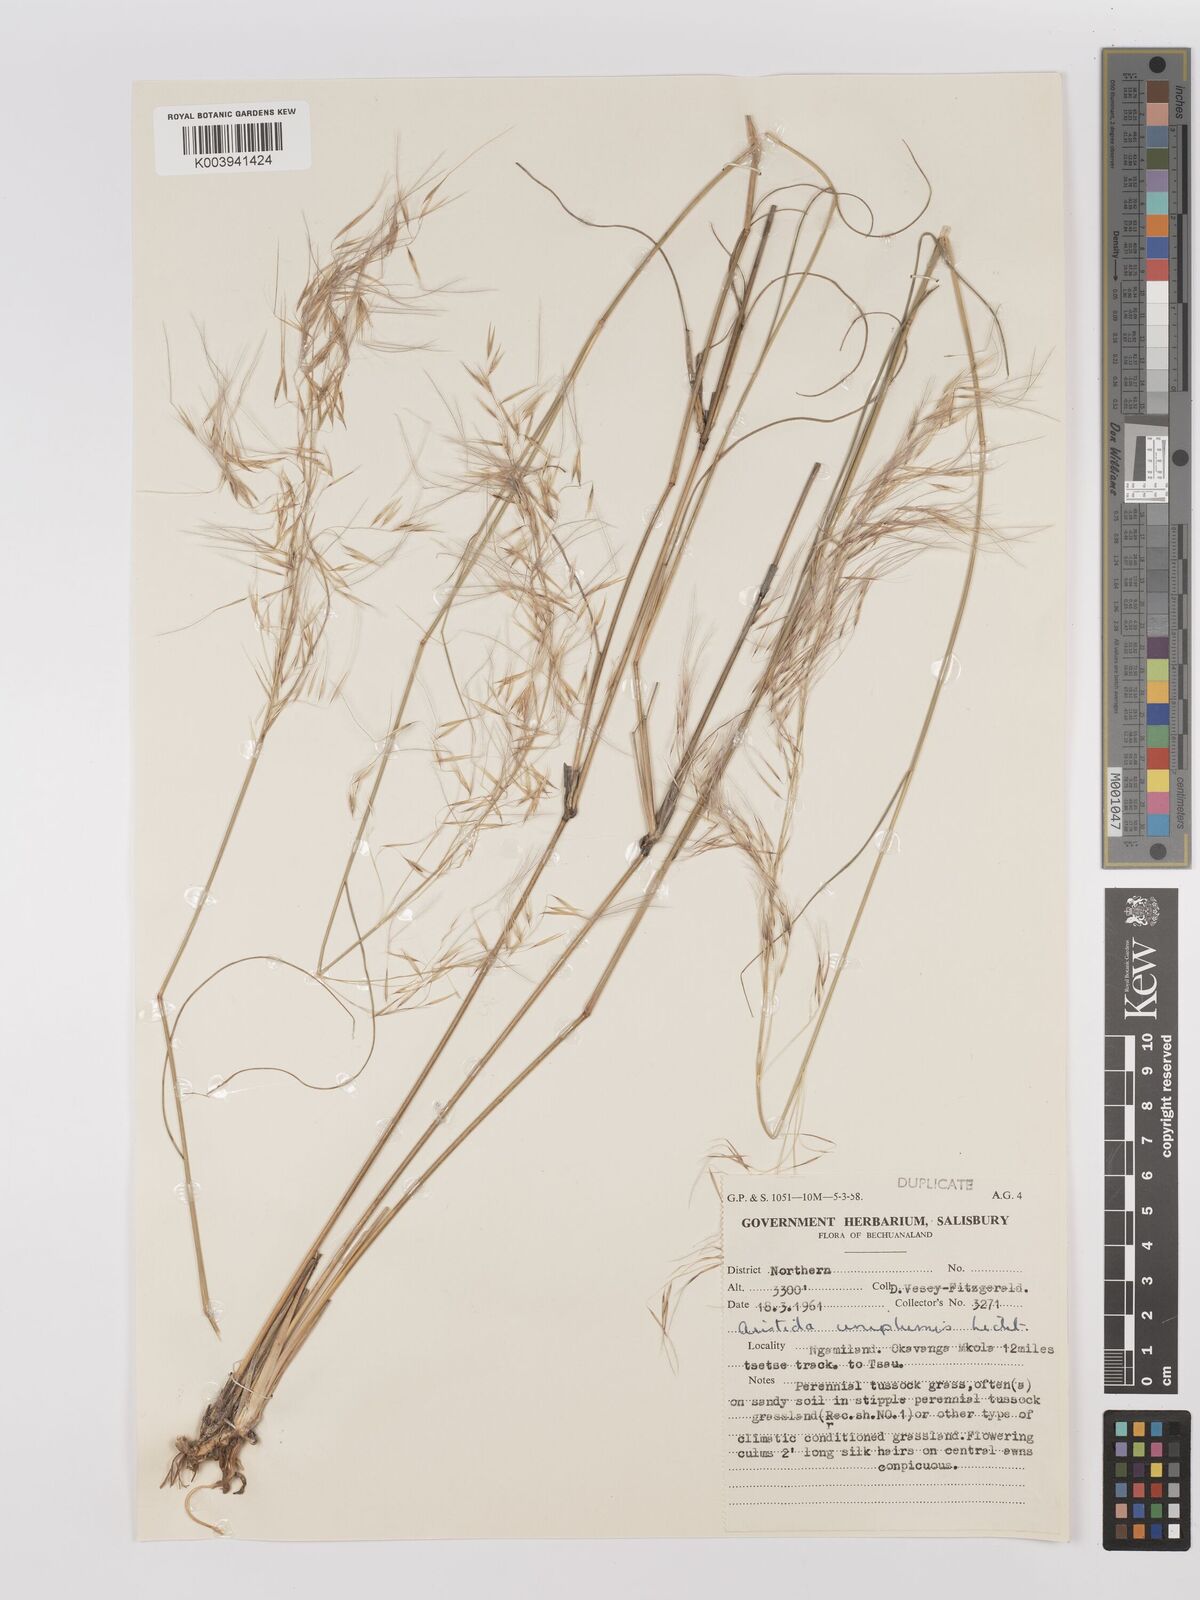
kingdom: Plantae
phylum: Tracheophyta
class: Liliopsida
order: Poales
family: Poaceae
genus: Stipagrostis
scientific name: Stipagrostis uniplumis
